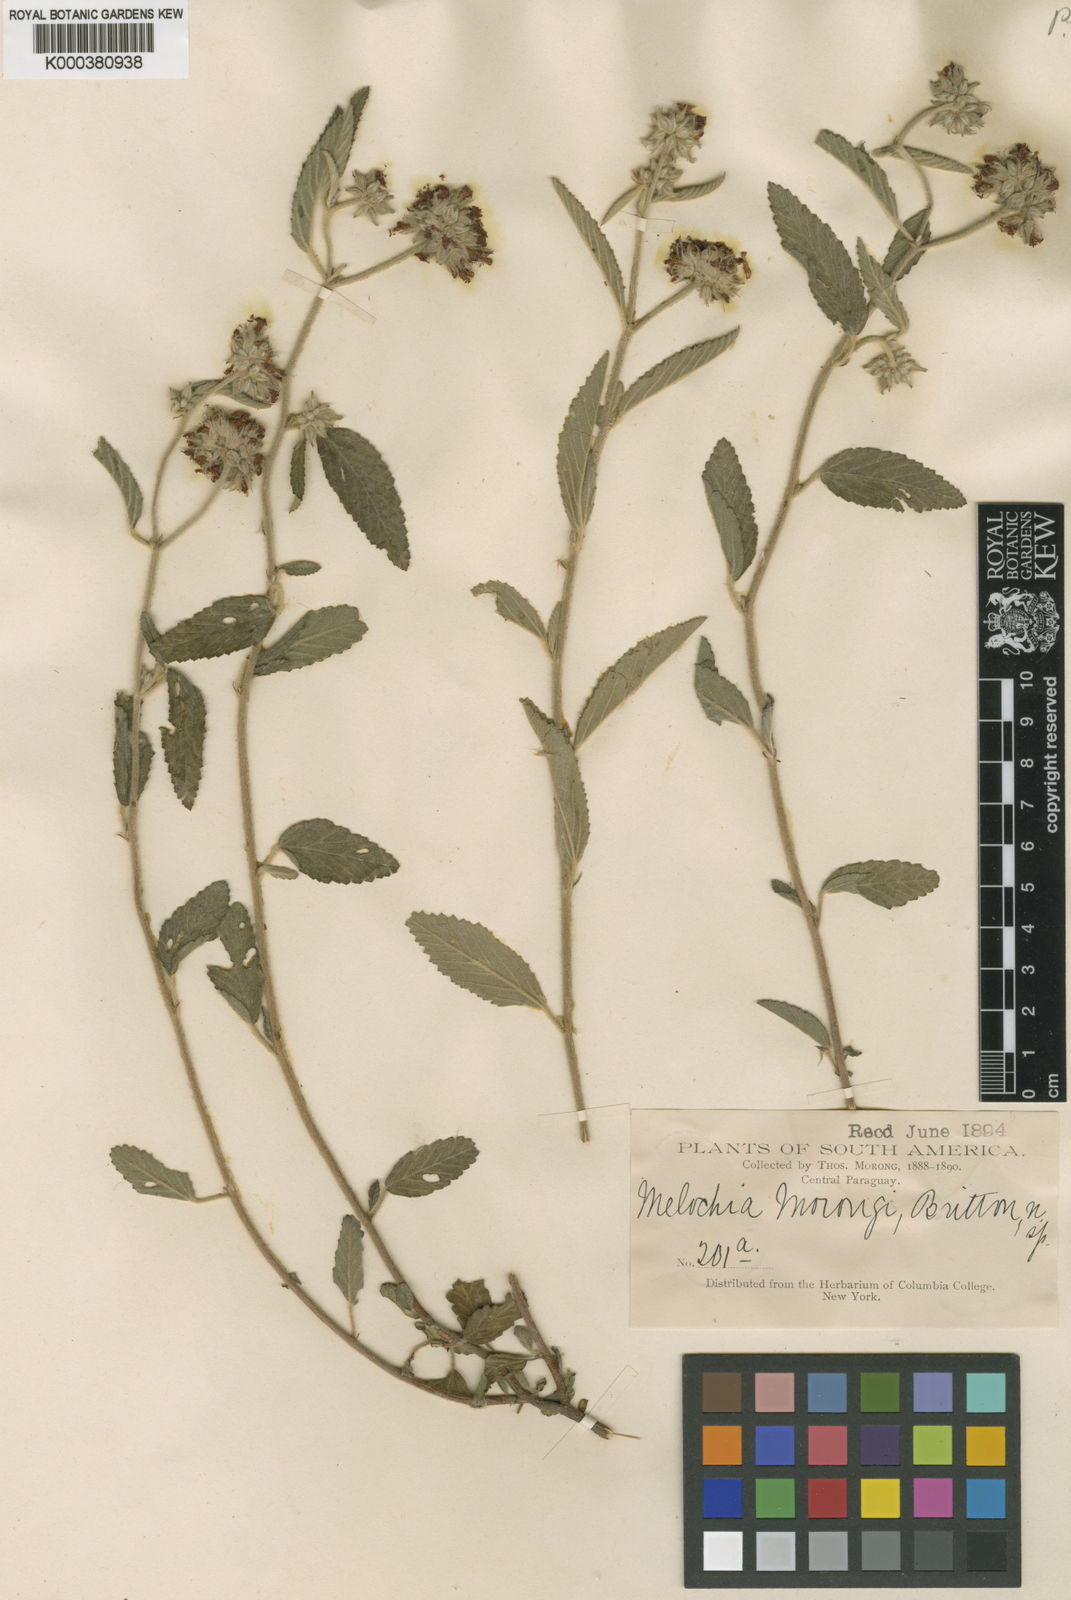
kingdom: Plantae
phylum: Tracheophyta
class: Magnoliopsida
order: Malvales
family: Malvaceae
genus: Melochia
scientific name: Melochia morongii
